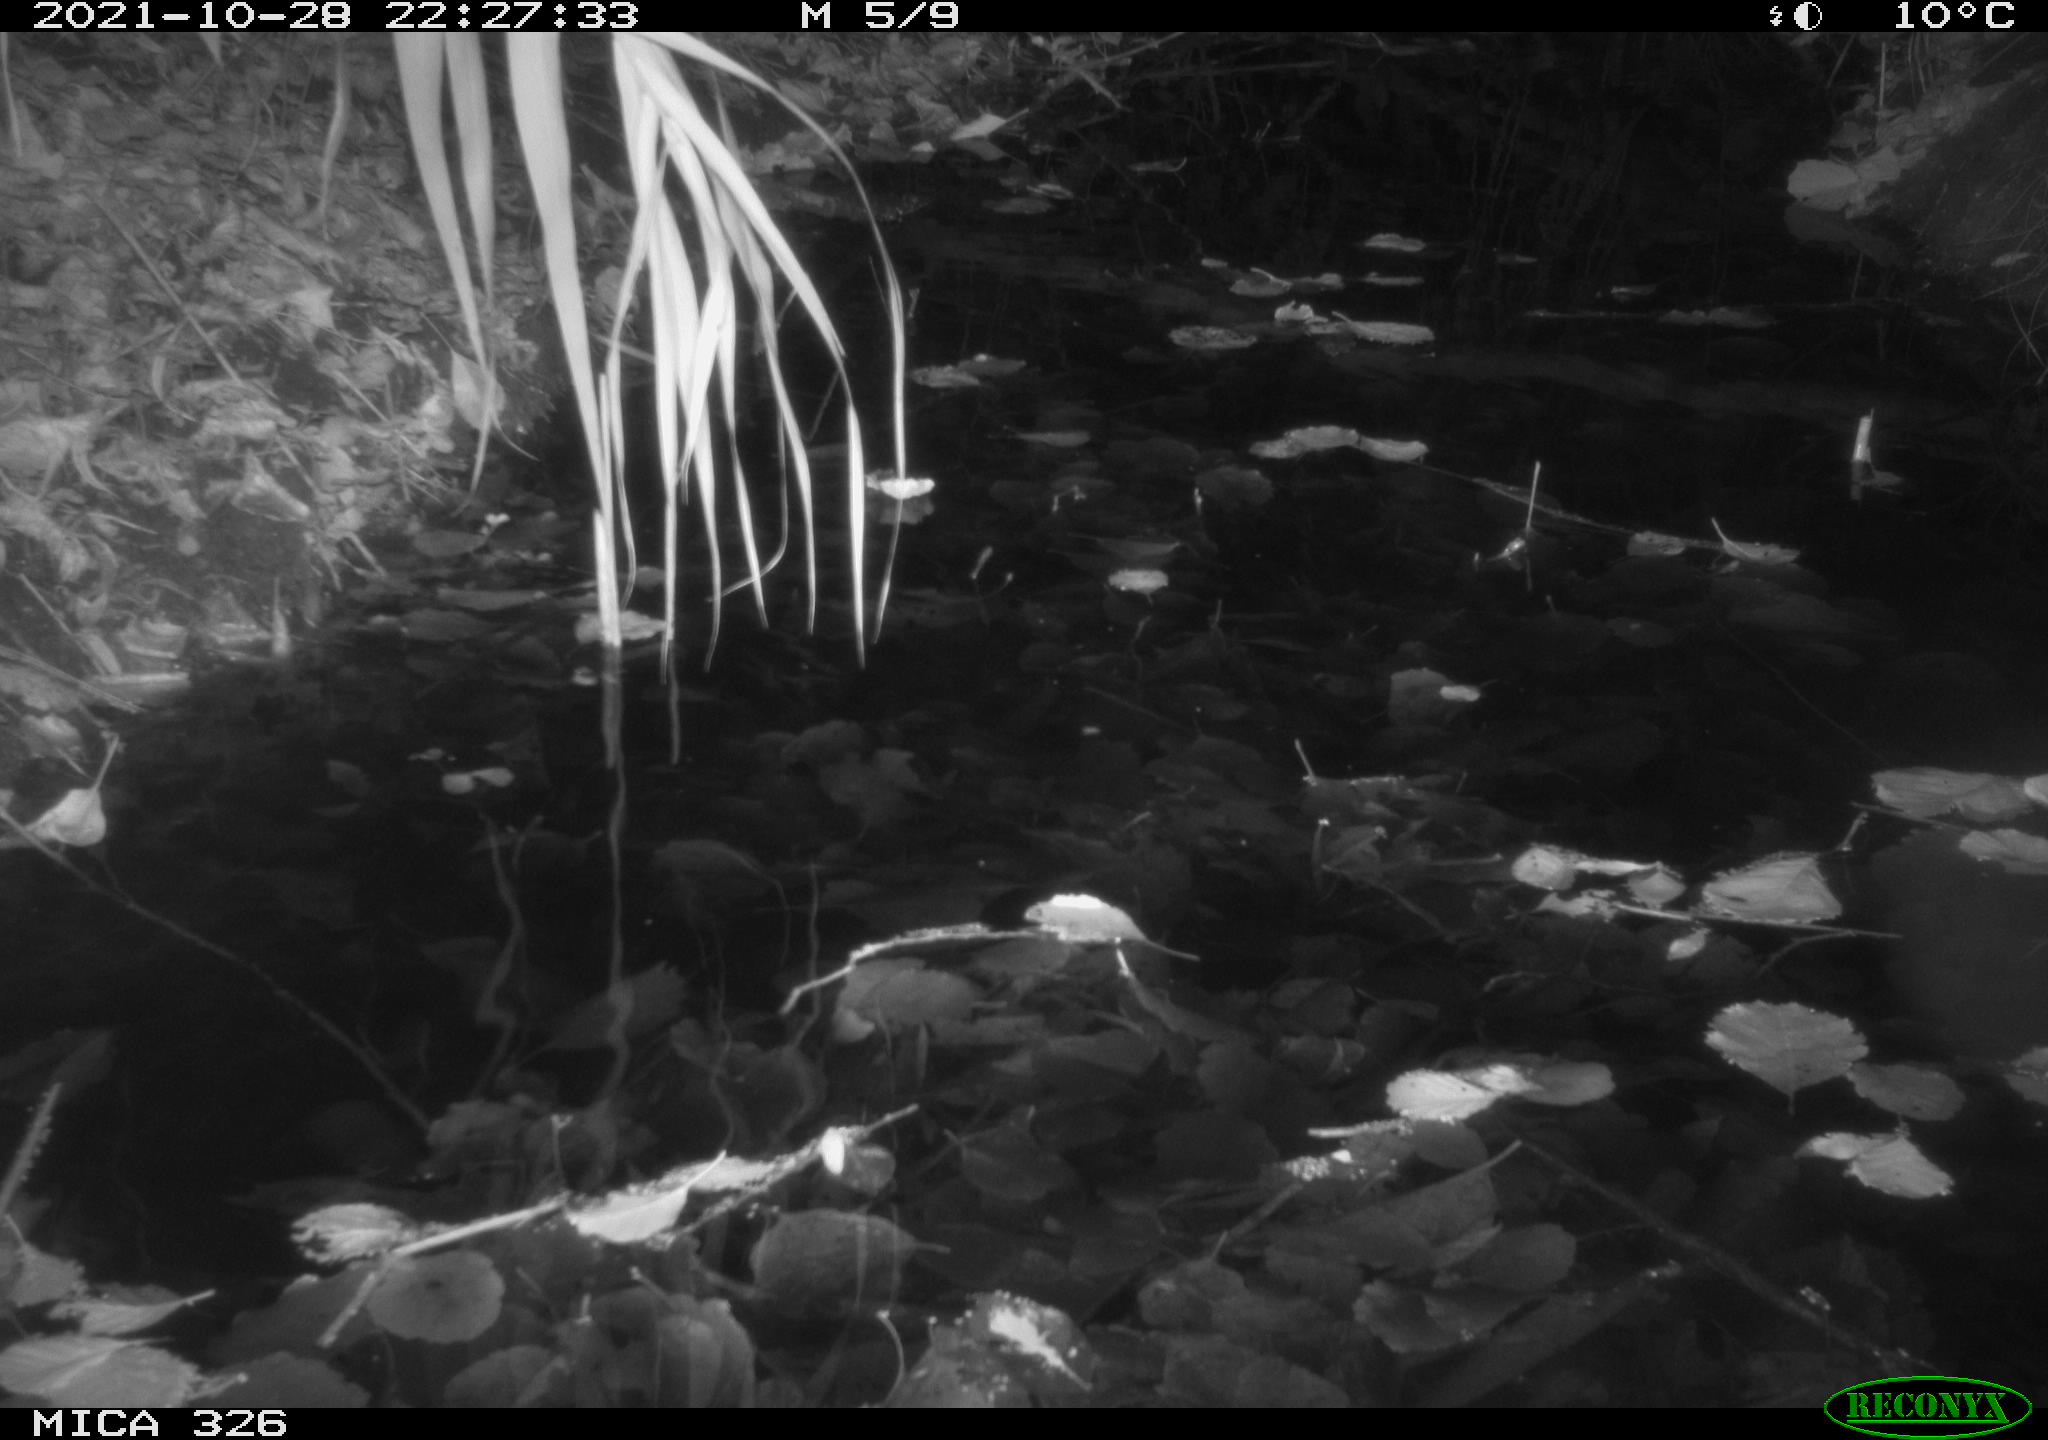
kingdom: Animalia
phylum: Chordata
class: Mammalia
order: Rodentia
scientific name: Rodentia
